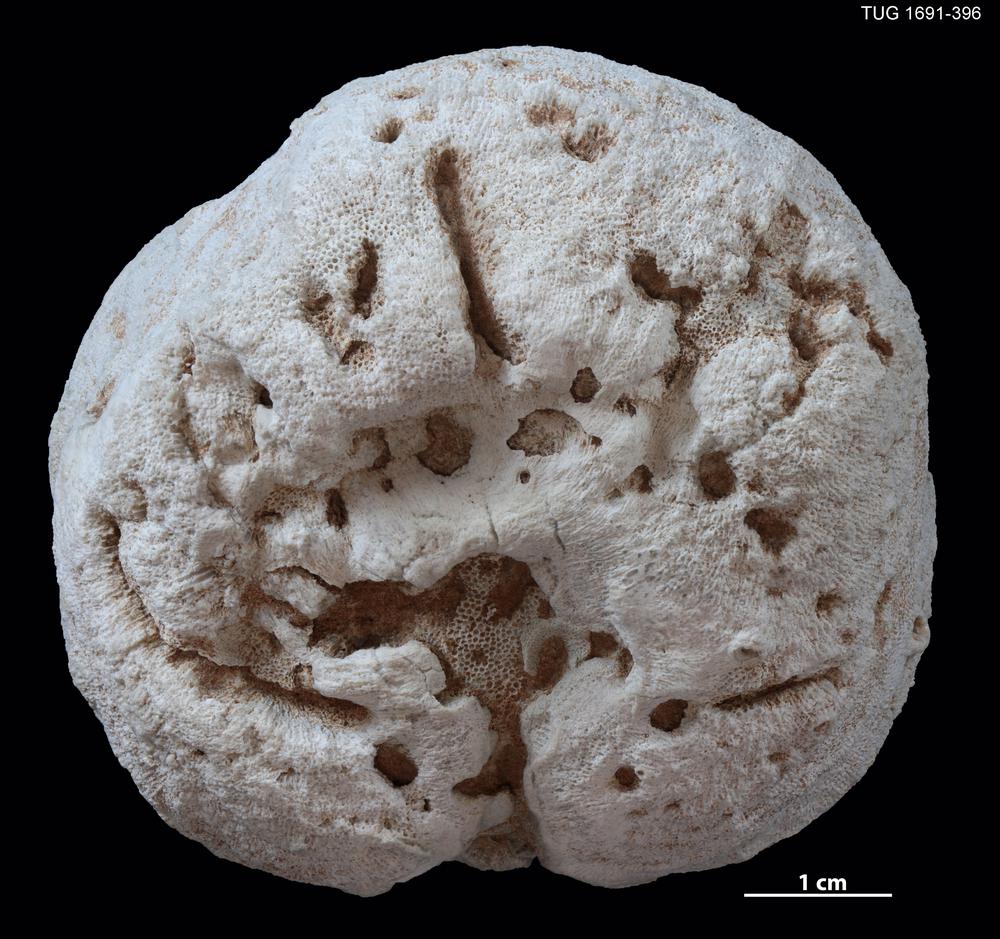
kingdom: Animalia
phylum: Bryozoa
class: Stenolaemata
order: Trepostomatida
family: Diplotrypidae
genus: Diplotrypa
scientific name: Diplotrypa
